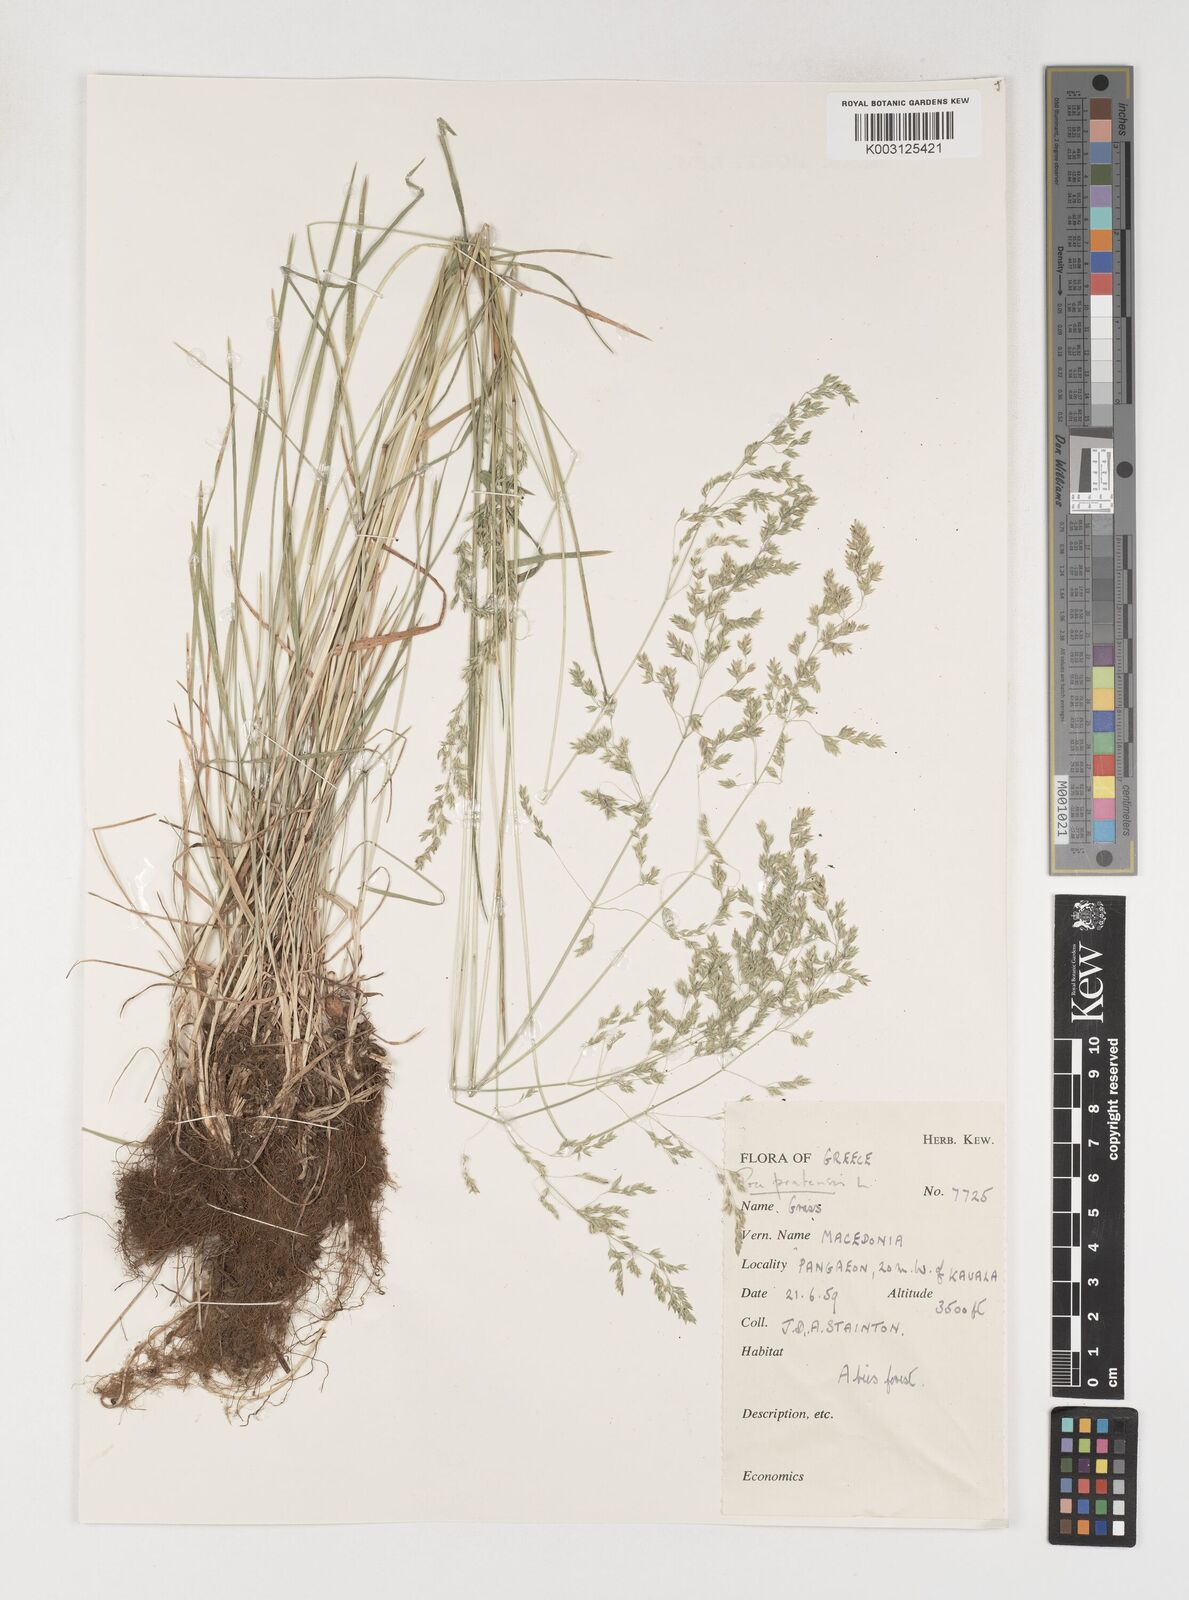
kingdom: Plantae
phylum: Tracheophyta
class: Liliopsida
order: Poales
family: Poaceae
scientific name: Poaceae
